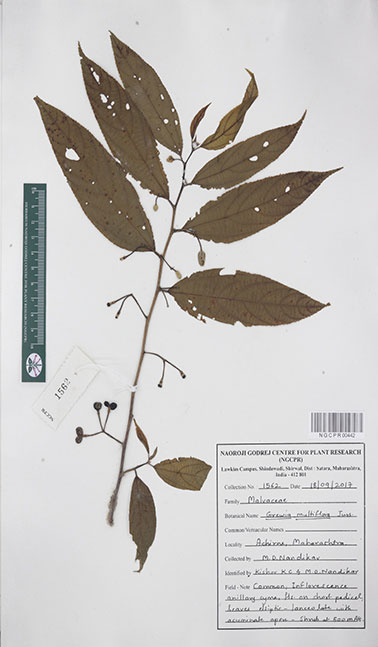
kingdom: Plantae
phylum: Tracheophyta
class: Magnoliopsida
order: Malvales
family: Malvaceae
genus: Grewia
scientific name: Grewia multiflora
